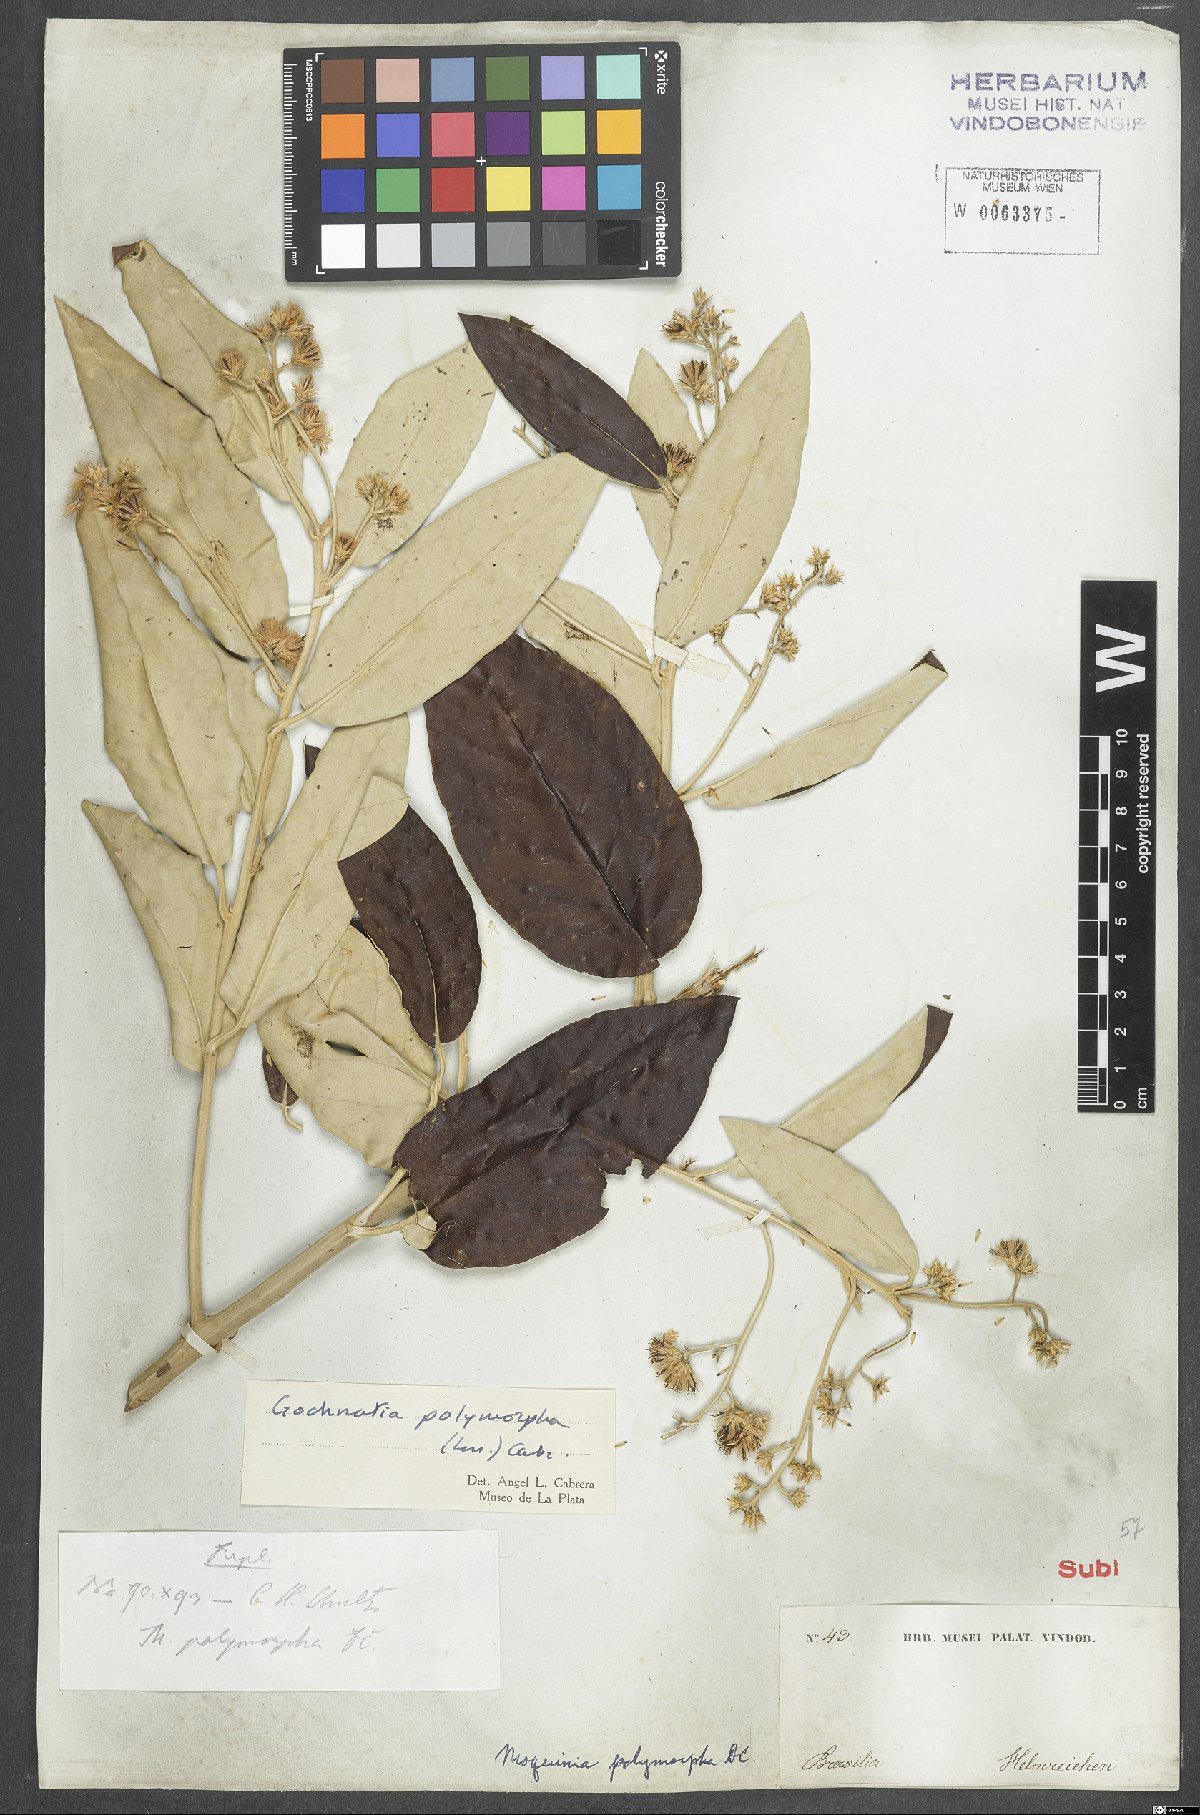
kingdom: Plantae
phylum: Tracheophyta
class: Magnoliopsida
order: Asterales
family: Asteraceae
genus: Moquiniastrum
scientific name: Moquiniastrum polymorphum
